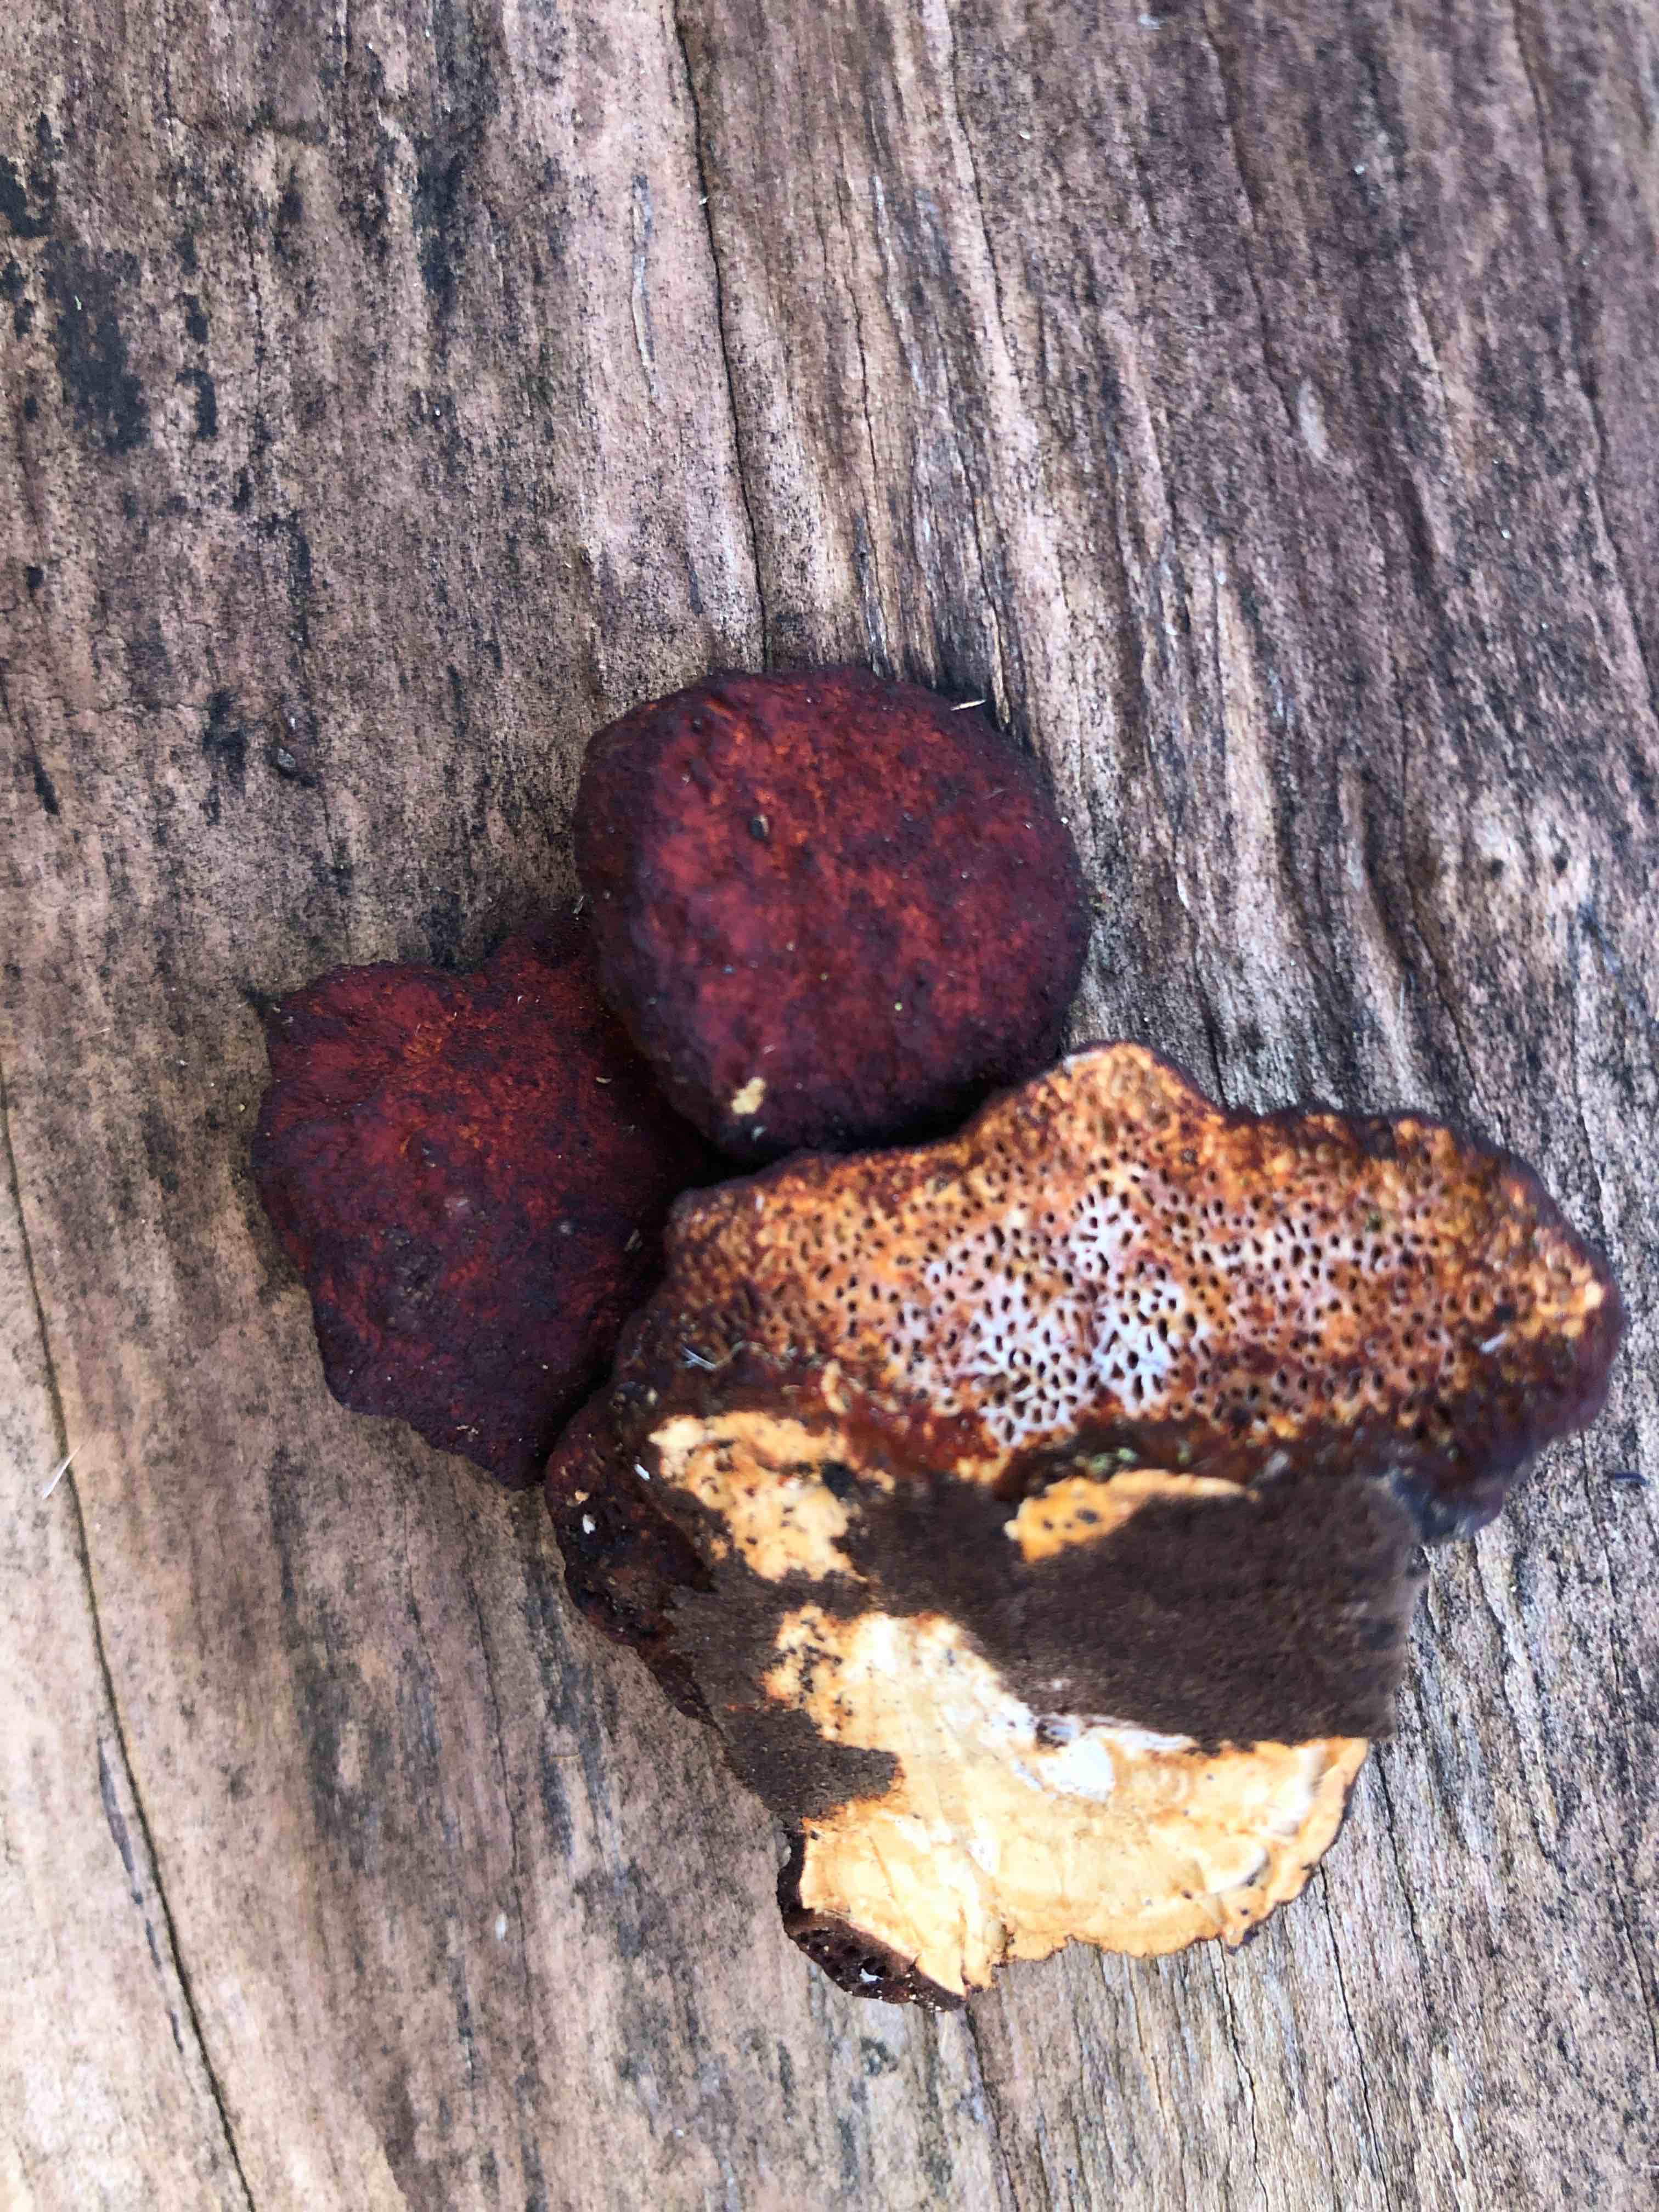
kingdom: Fungi
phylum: Basidiomycota
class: Agaricomycetes
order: Polyporales
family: Polyporaceae
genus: Daedaleopsis
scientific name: Daedaleopsis confragosa
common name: rødmende læderporesvamp
